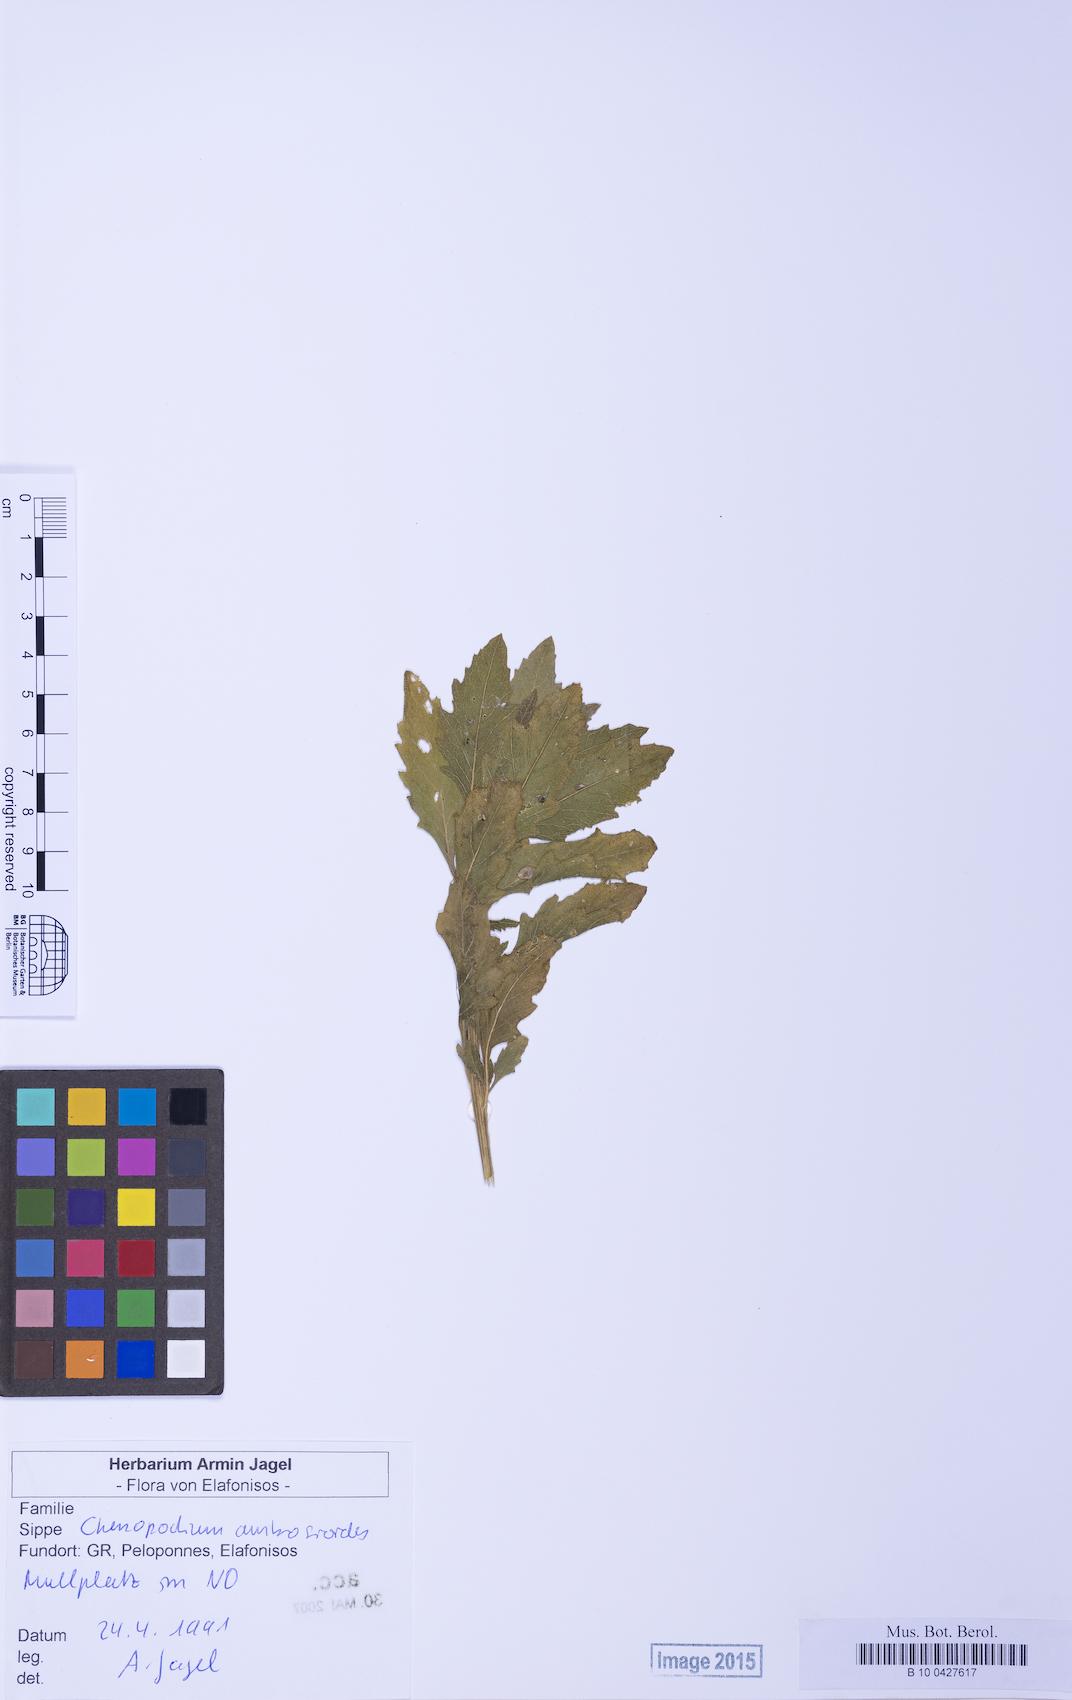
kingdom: Plantae
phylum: Tracheophyta
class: Magnoliopsida
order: Caryophyllales
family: Amaranthaceae
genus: Dysphania
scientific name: Dysphania ambrosioides
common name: Wormseed
